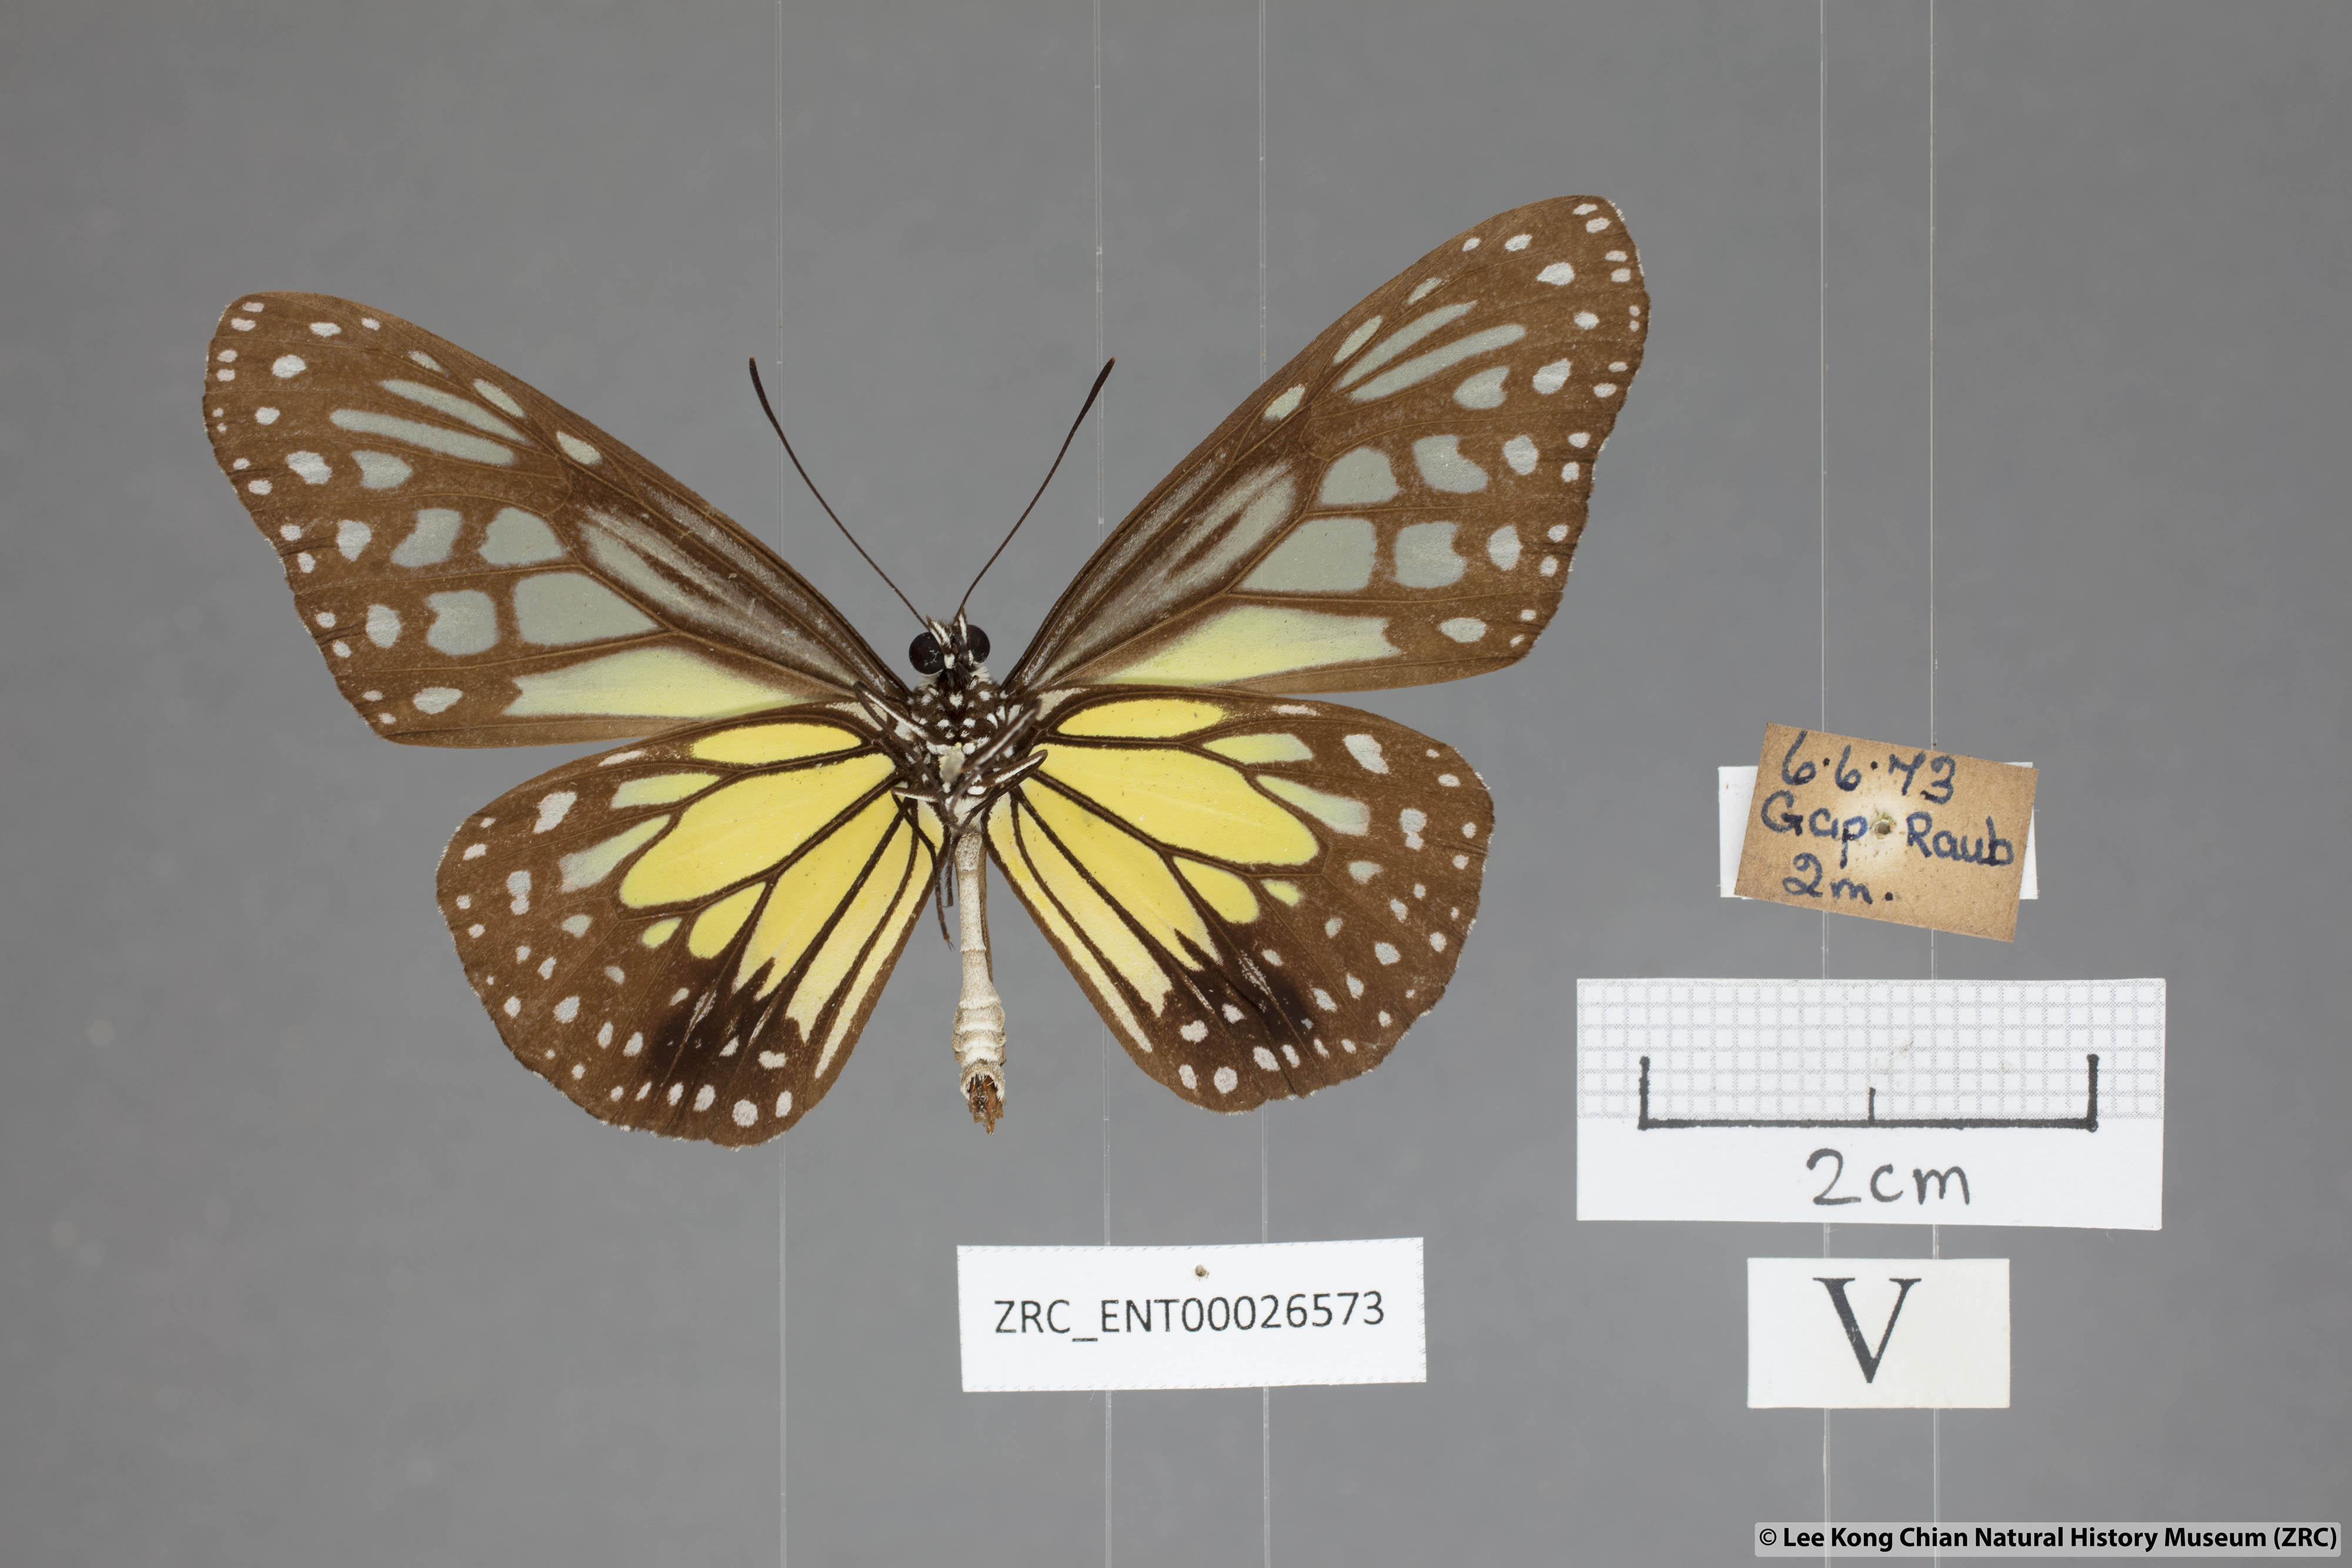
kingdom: Animalia
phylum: Arthropoda
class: Insecta
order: Lepidoptera
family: Nymphalidae
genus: Parantica
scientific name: Parantica aspasia
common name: Yellow glassy tiger
